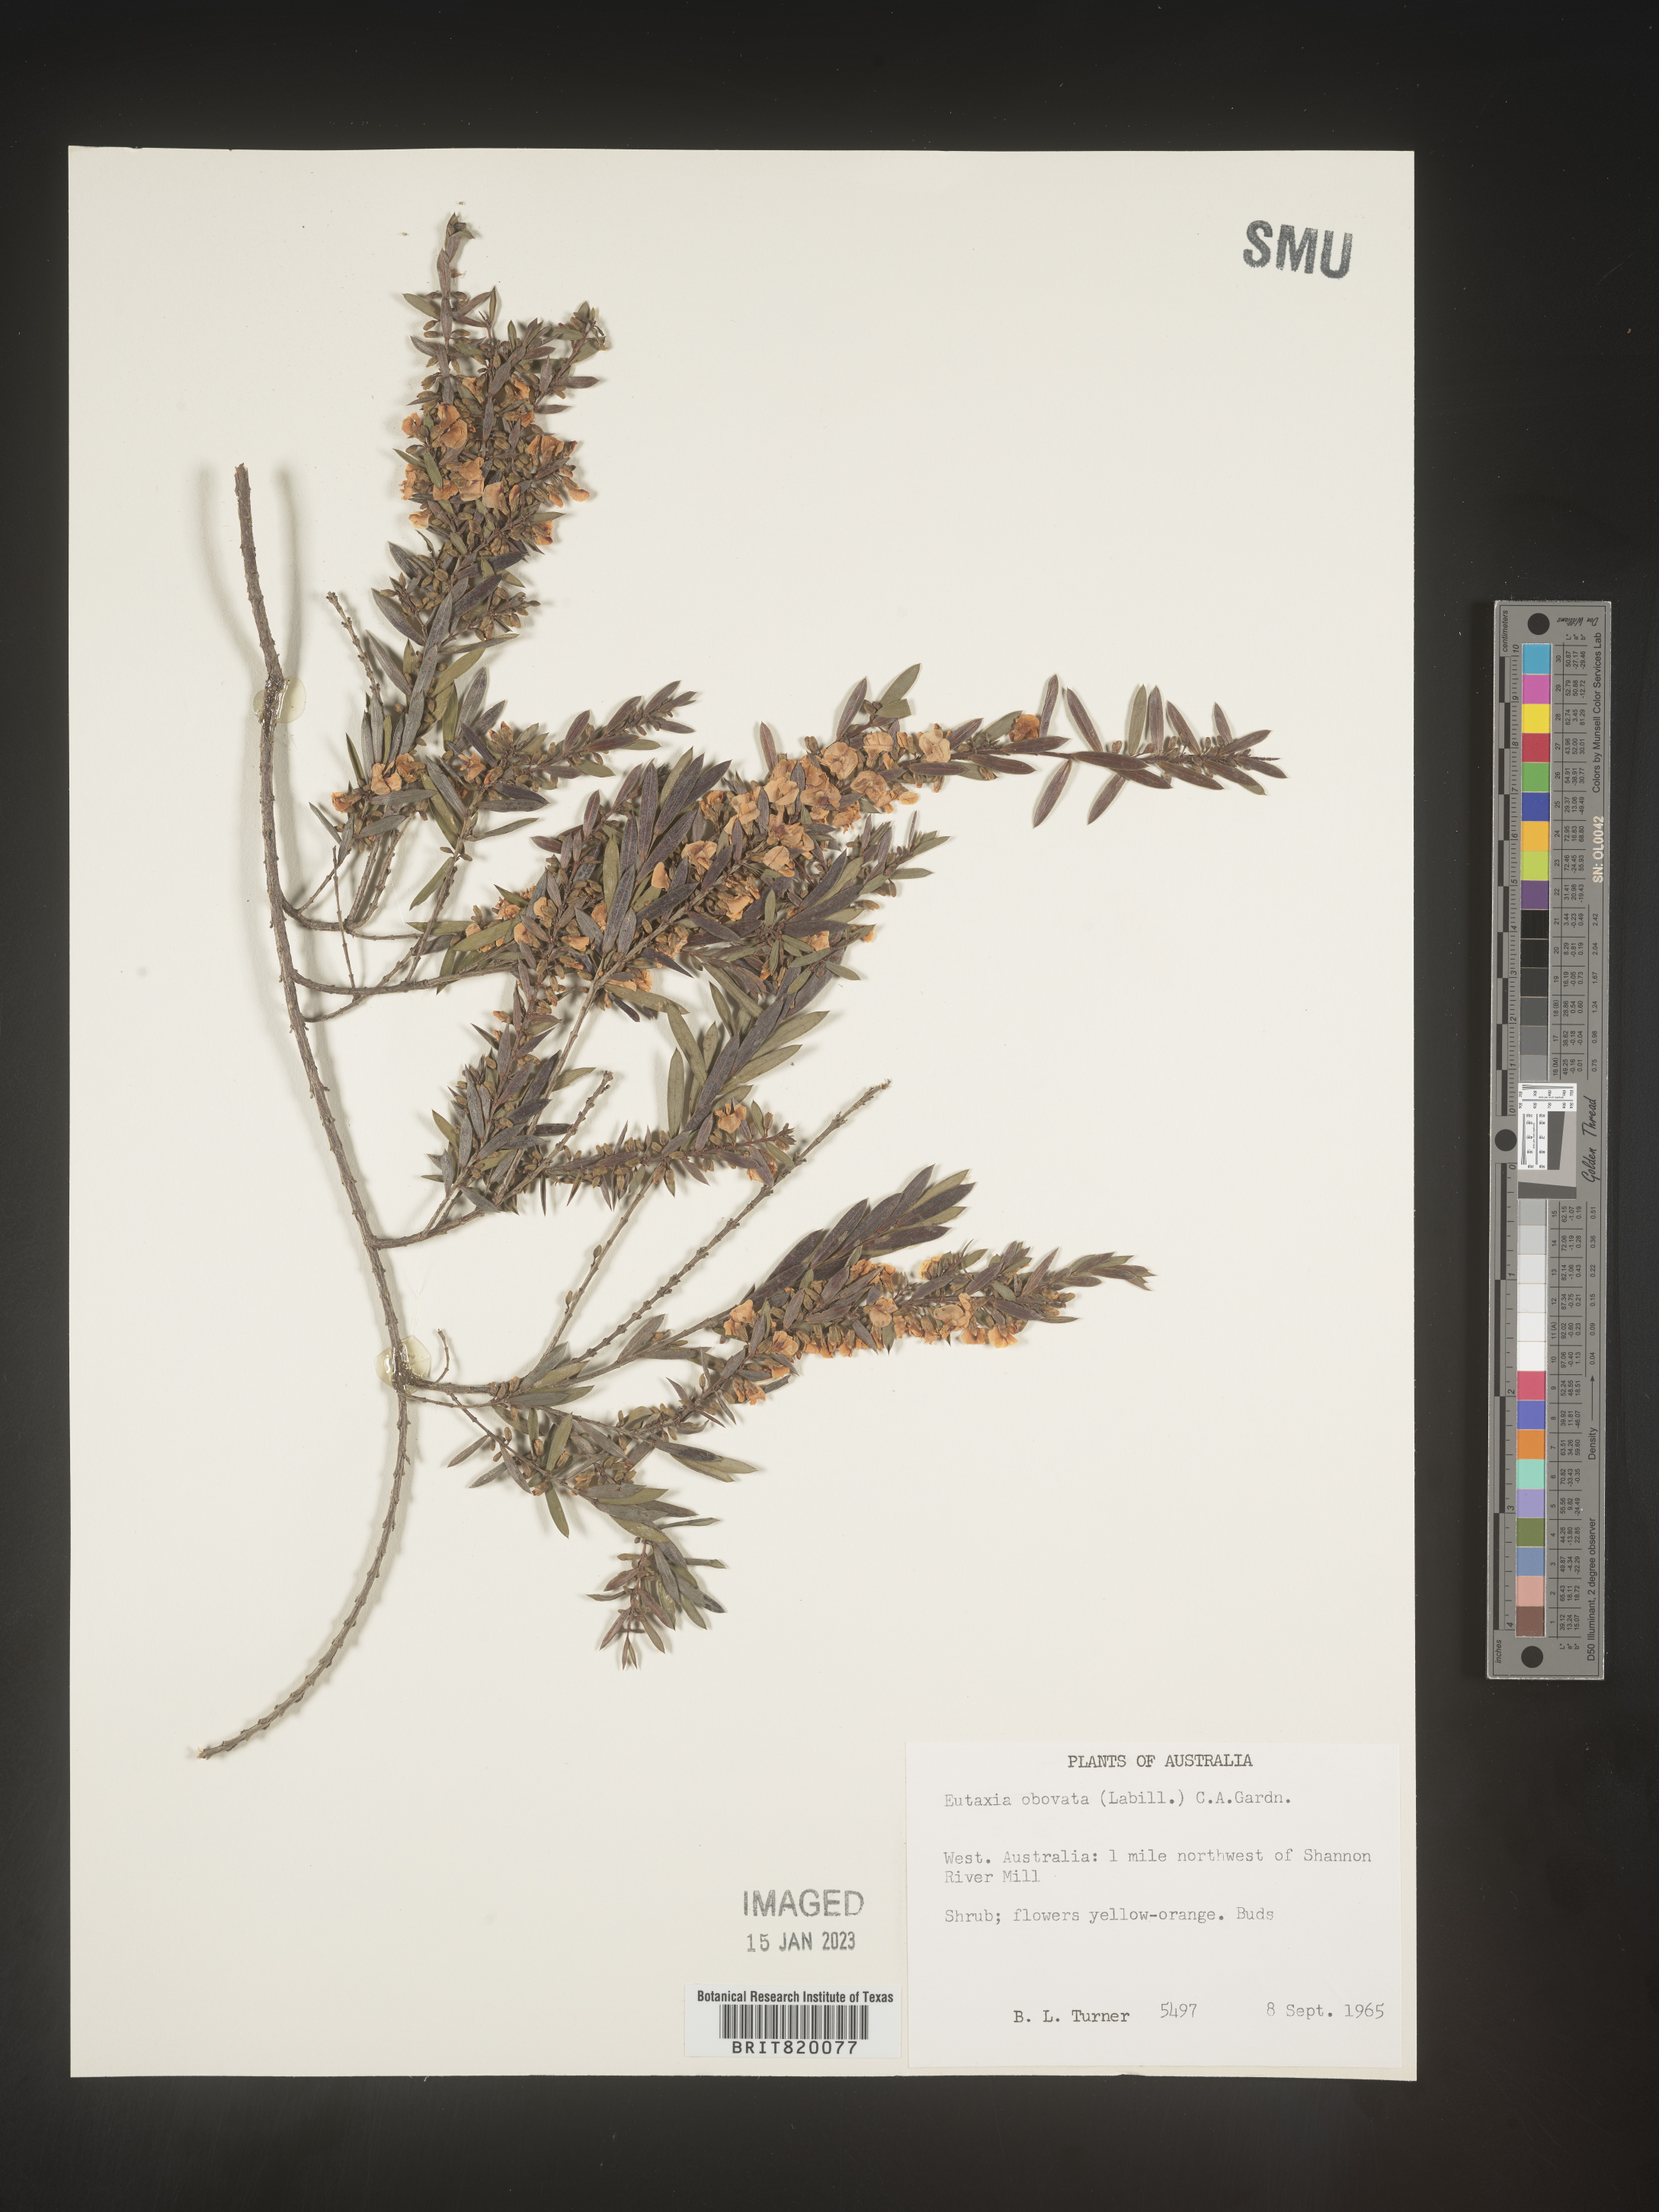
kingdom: Plantae
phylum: Tracheophyta
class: Magnoliopsida
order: Fabales
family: Fabaceae
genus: Eutaxia
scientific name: Eutaxia
